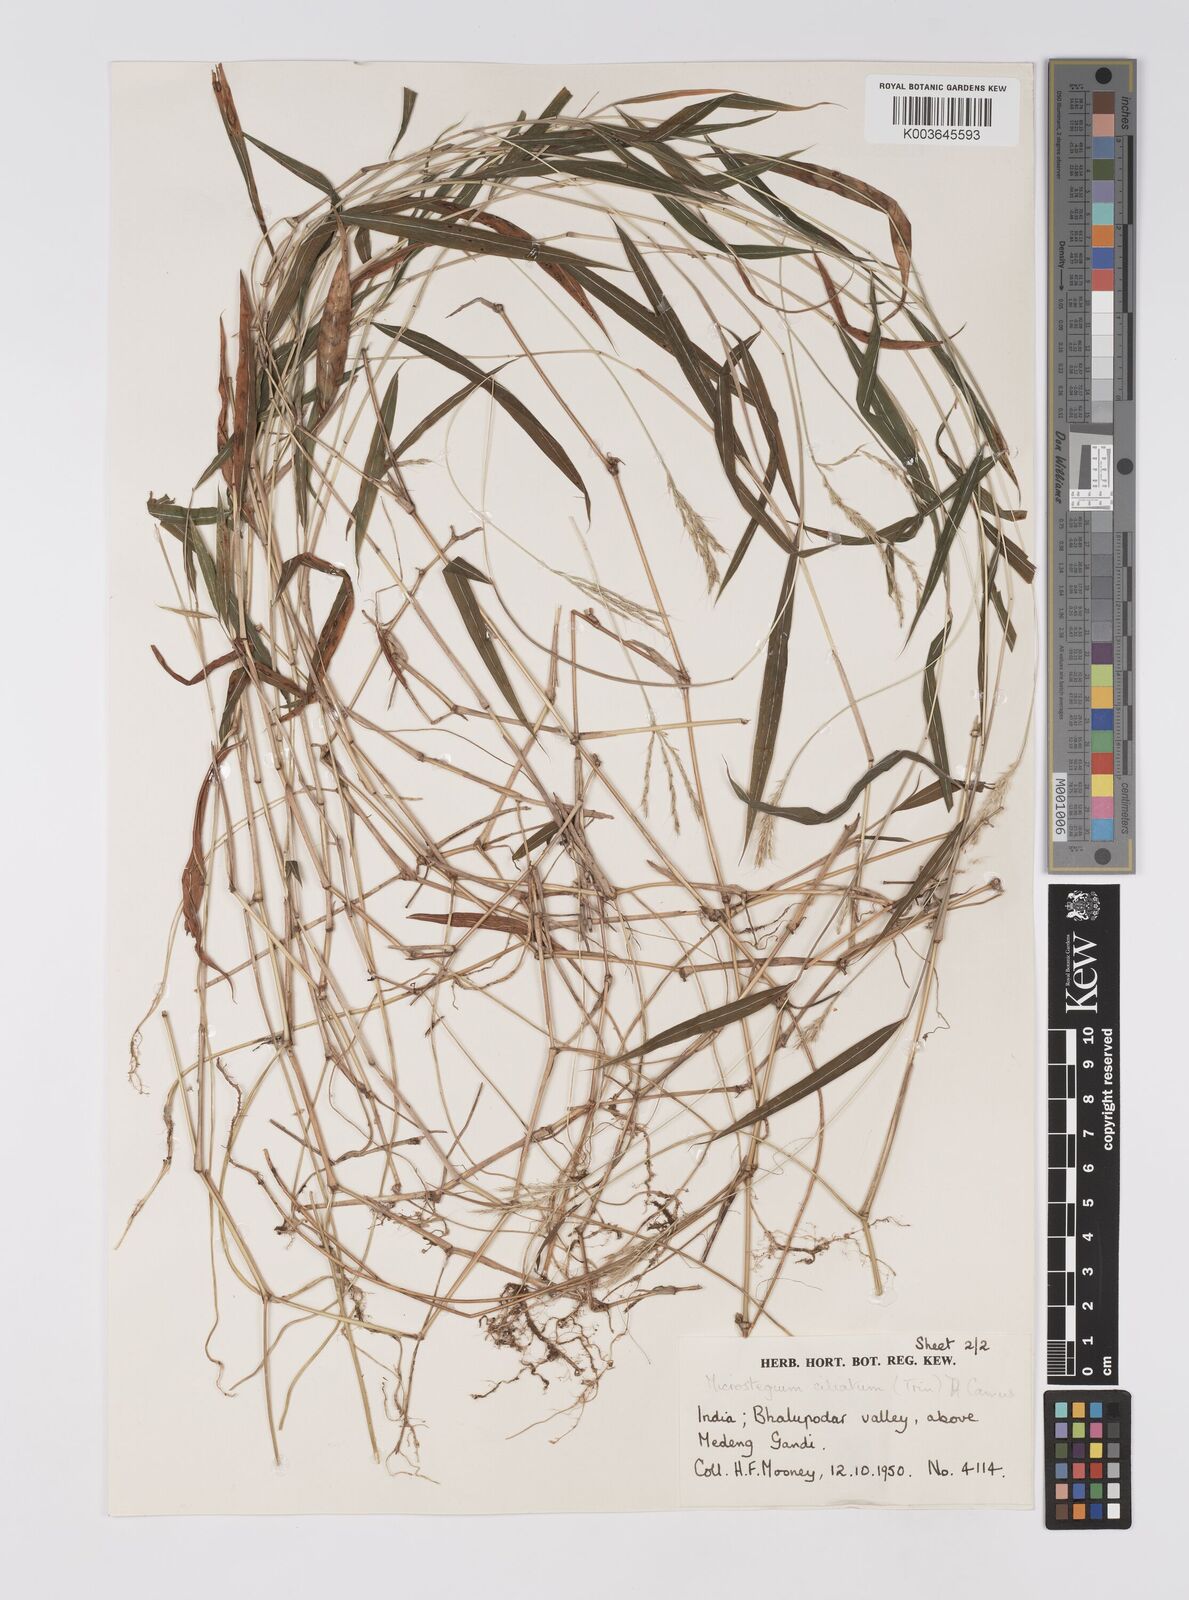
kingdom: Plantae
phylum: Tracheophyta
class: Liliopsida
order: Poales
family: Poaceae
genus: Microstegium
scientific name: Microstegium fasciculatum
